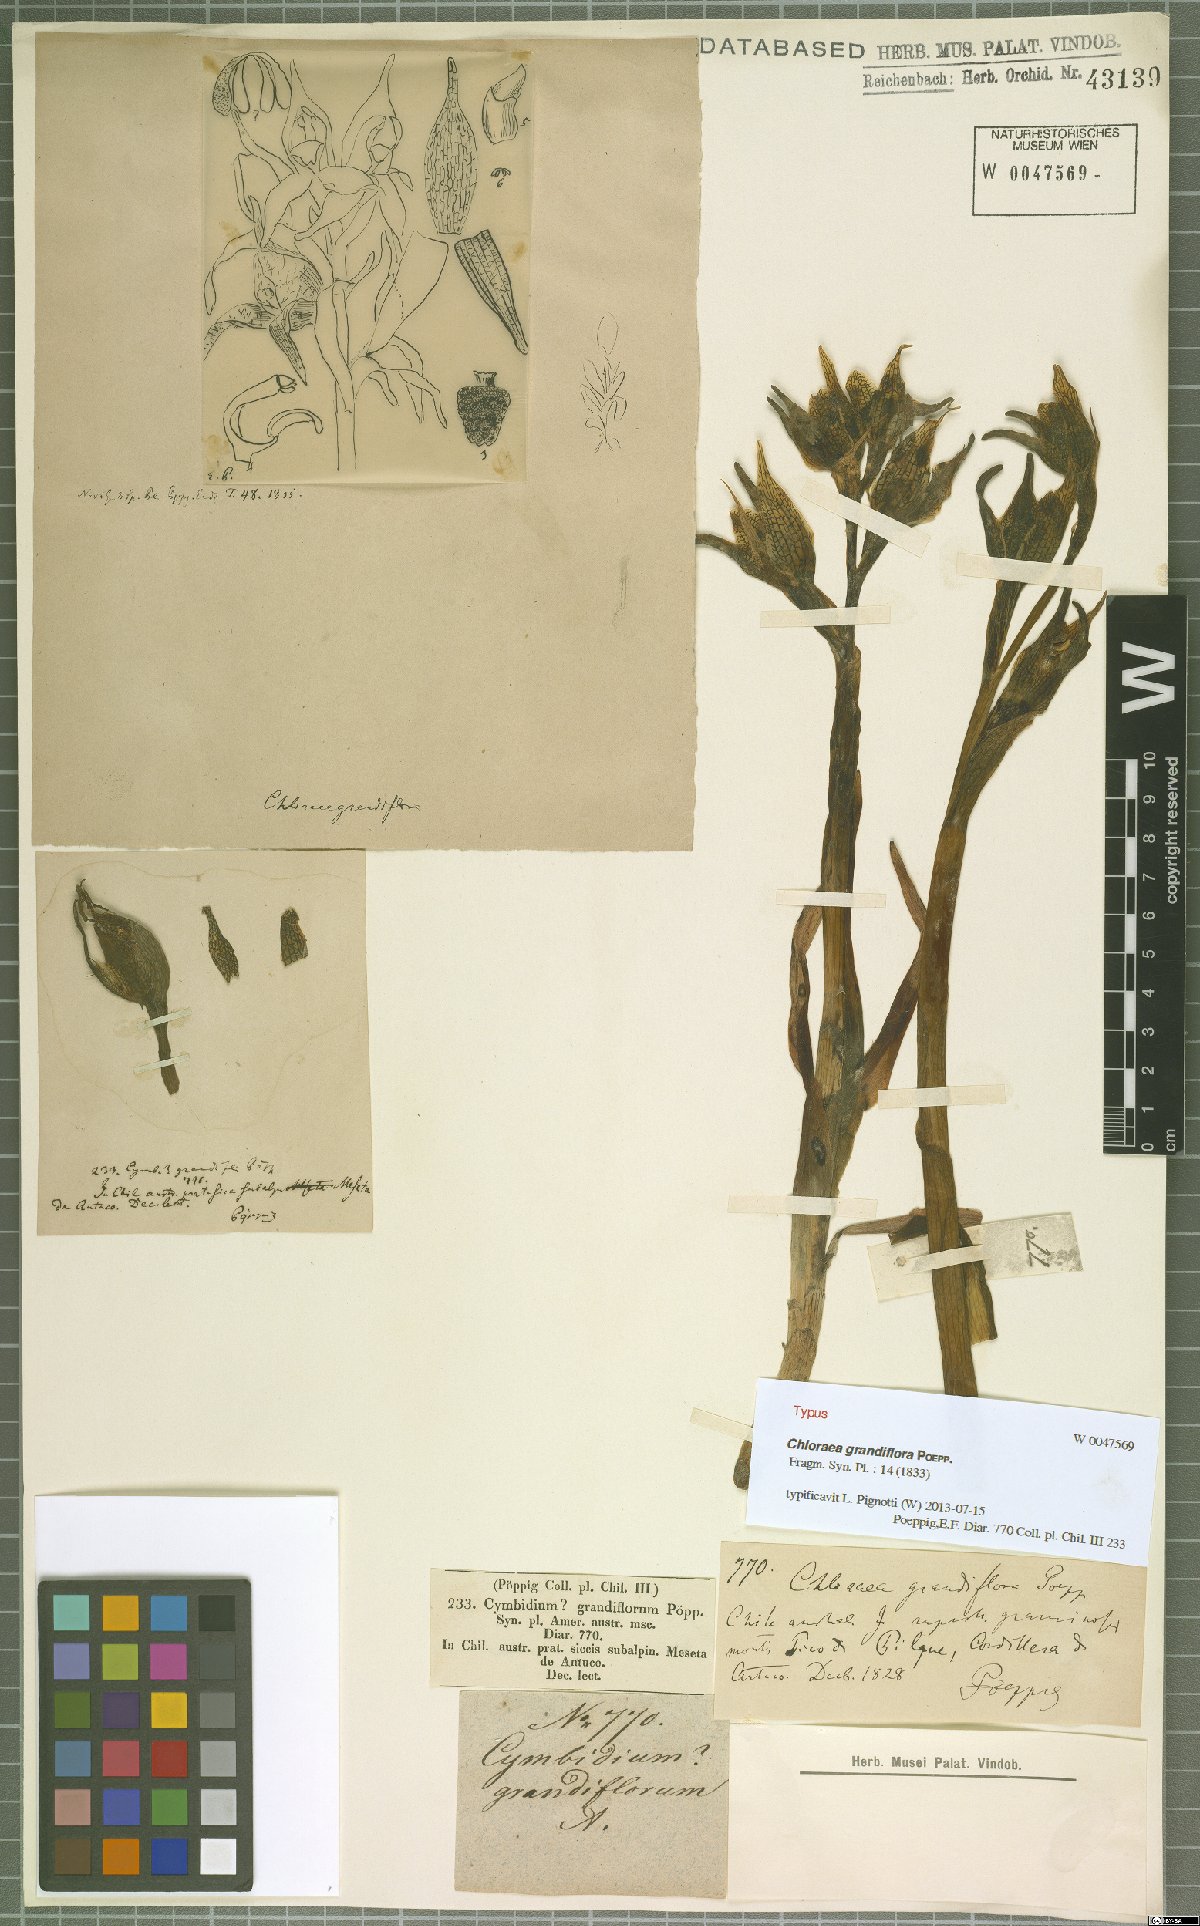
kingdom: Plantae
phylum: Tracheophyta
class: Liliopsida
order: Asparagales
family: Orchidaceae
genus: Chloraea
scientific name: Chloraea grandiflora
